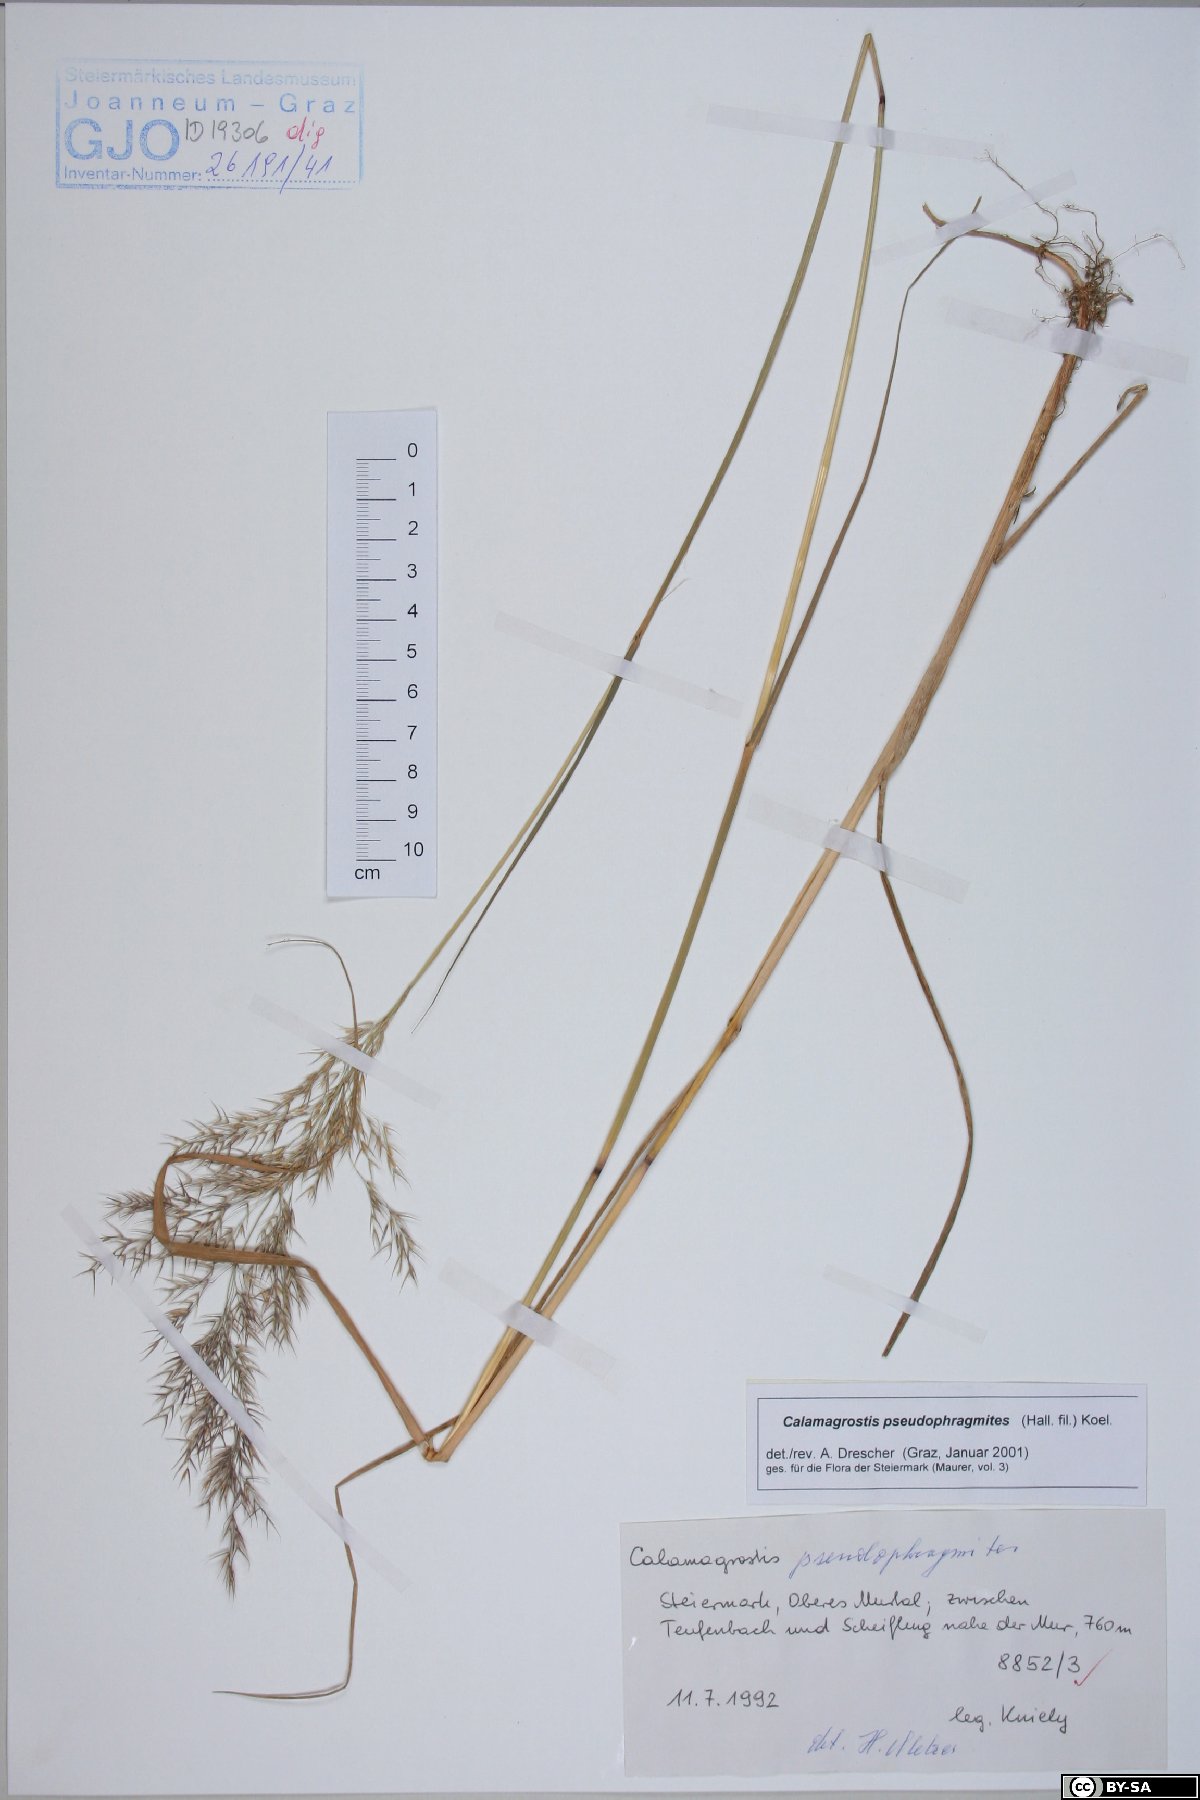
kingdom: Plantae
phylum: Tracheophyta
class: Liliopsida
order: Poales
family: Poaceae
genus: Calamagrostis
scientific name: Calamagrostis pseudophragmites
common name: Coastal small-reed
